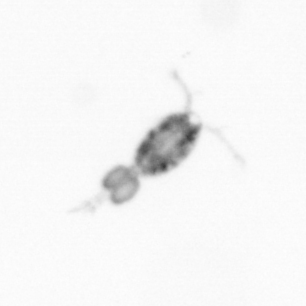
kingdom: Animalia
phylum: Arthropoda
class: Copepoda
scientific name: Copepoda
